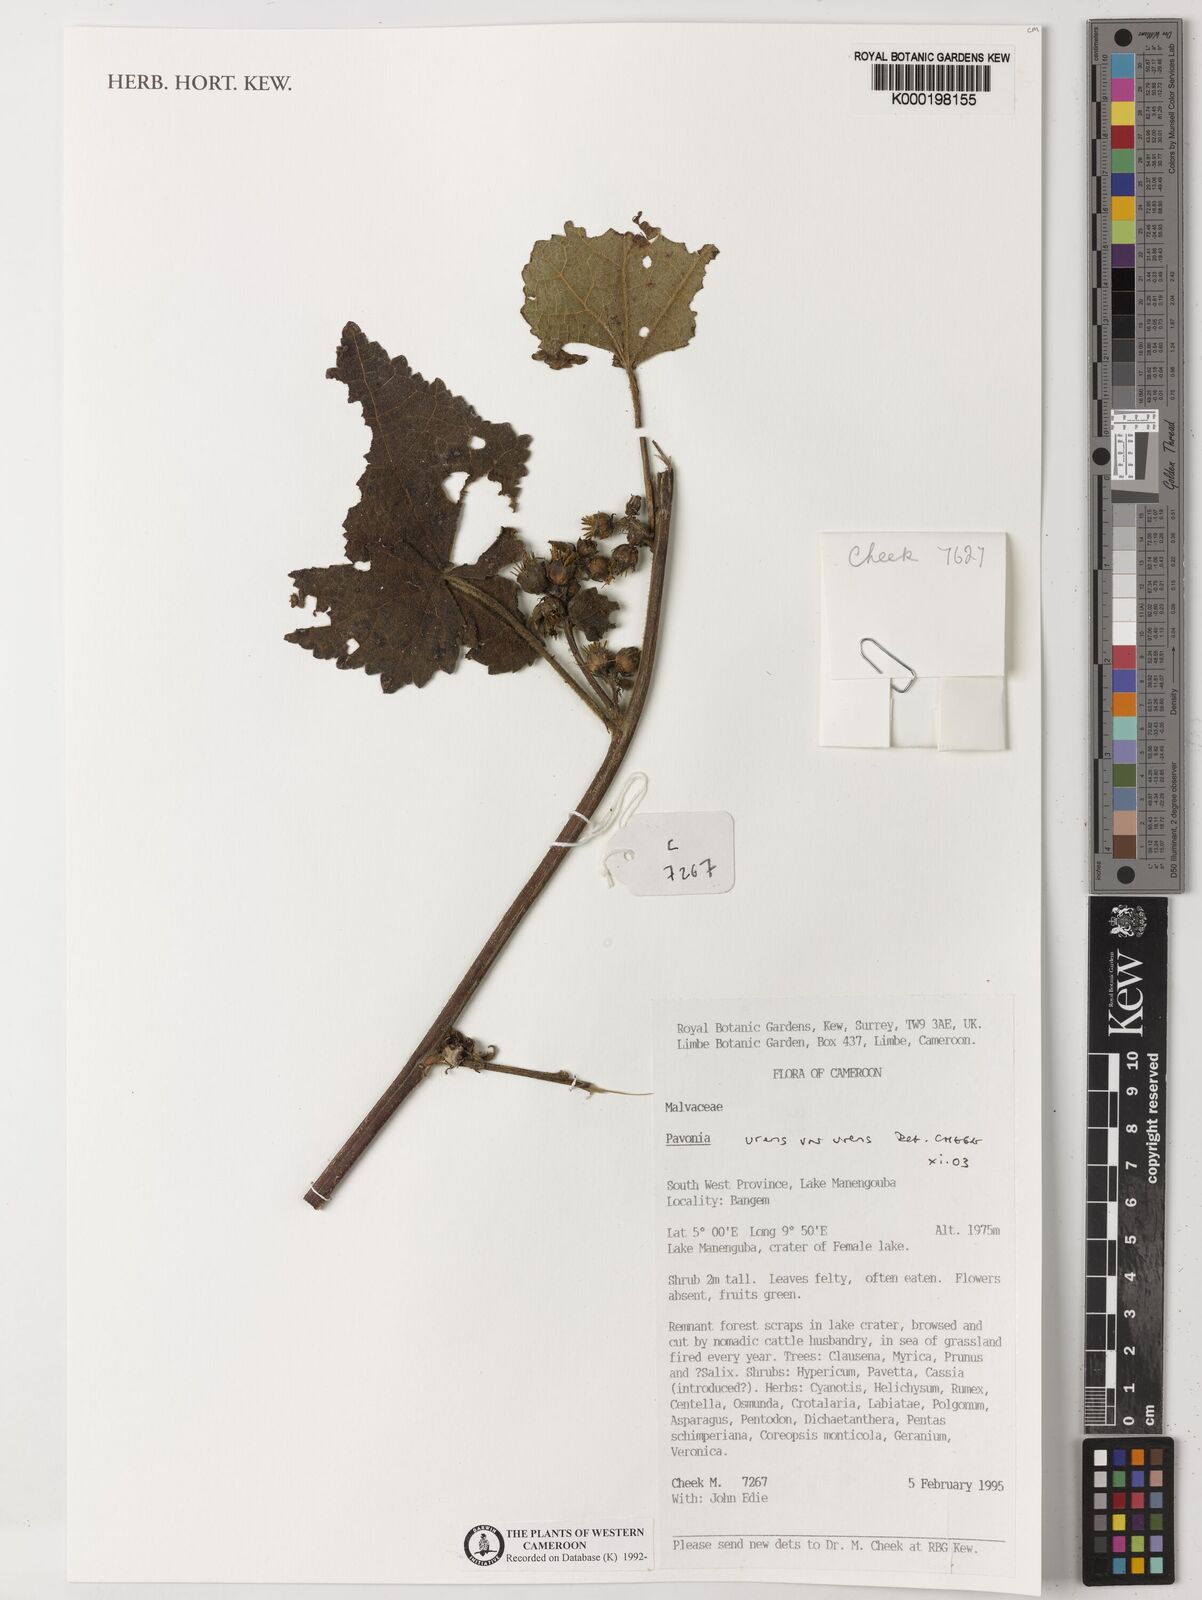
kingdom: Plantae
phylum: Tracheophyta
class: Magnoliopsida
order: Malvales
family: Malvaceae
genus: Pavonia
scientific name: Pavonia urens
